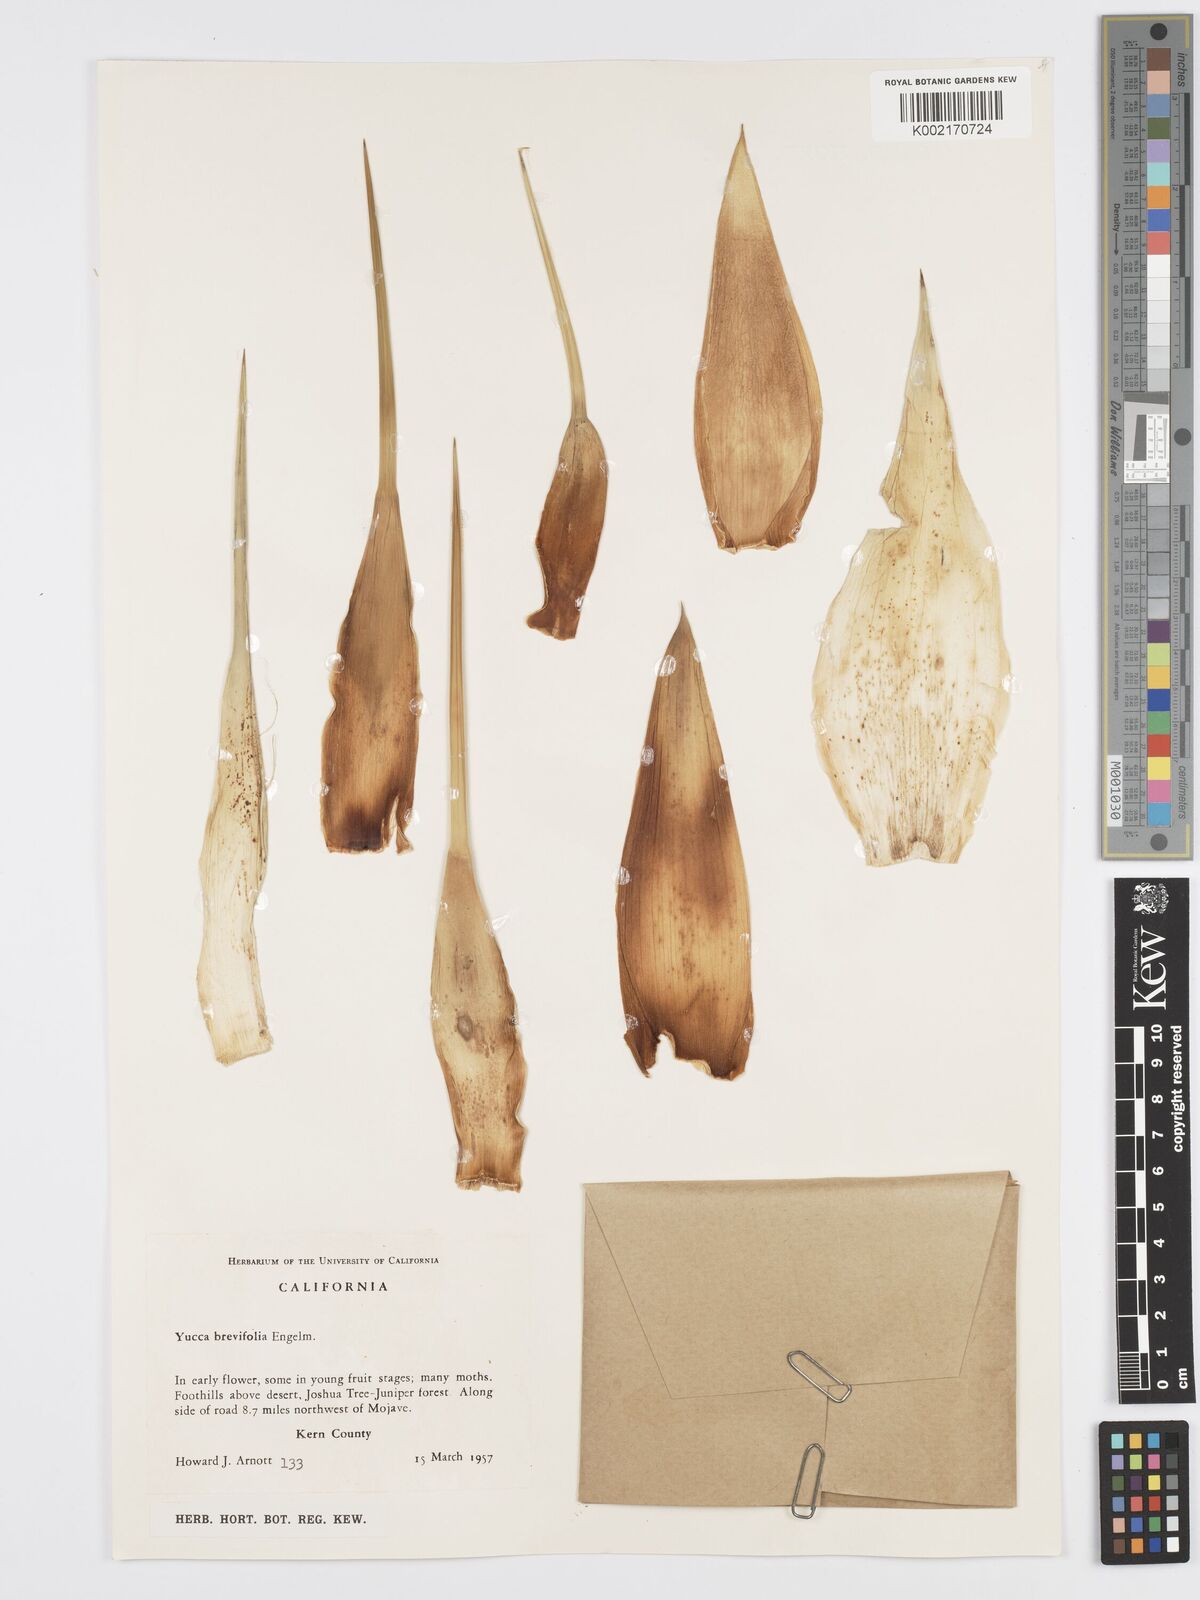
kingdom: Plantae
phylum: Tracheophyta
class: Liliopsida
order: Asparagales
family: Asparagaceae
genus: Yucca
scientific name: Yucca brevifolia
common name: Joshua tree
